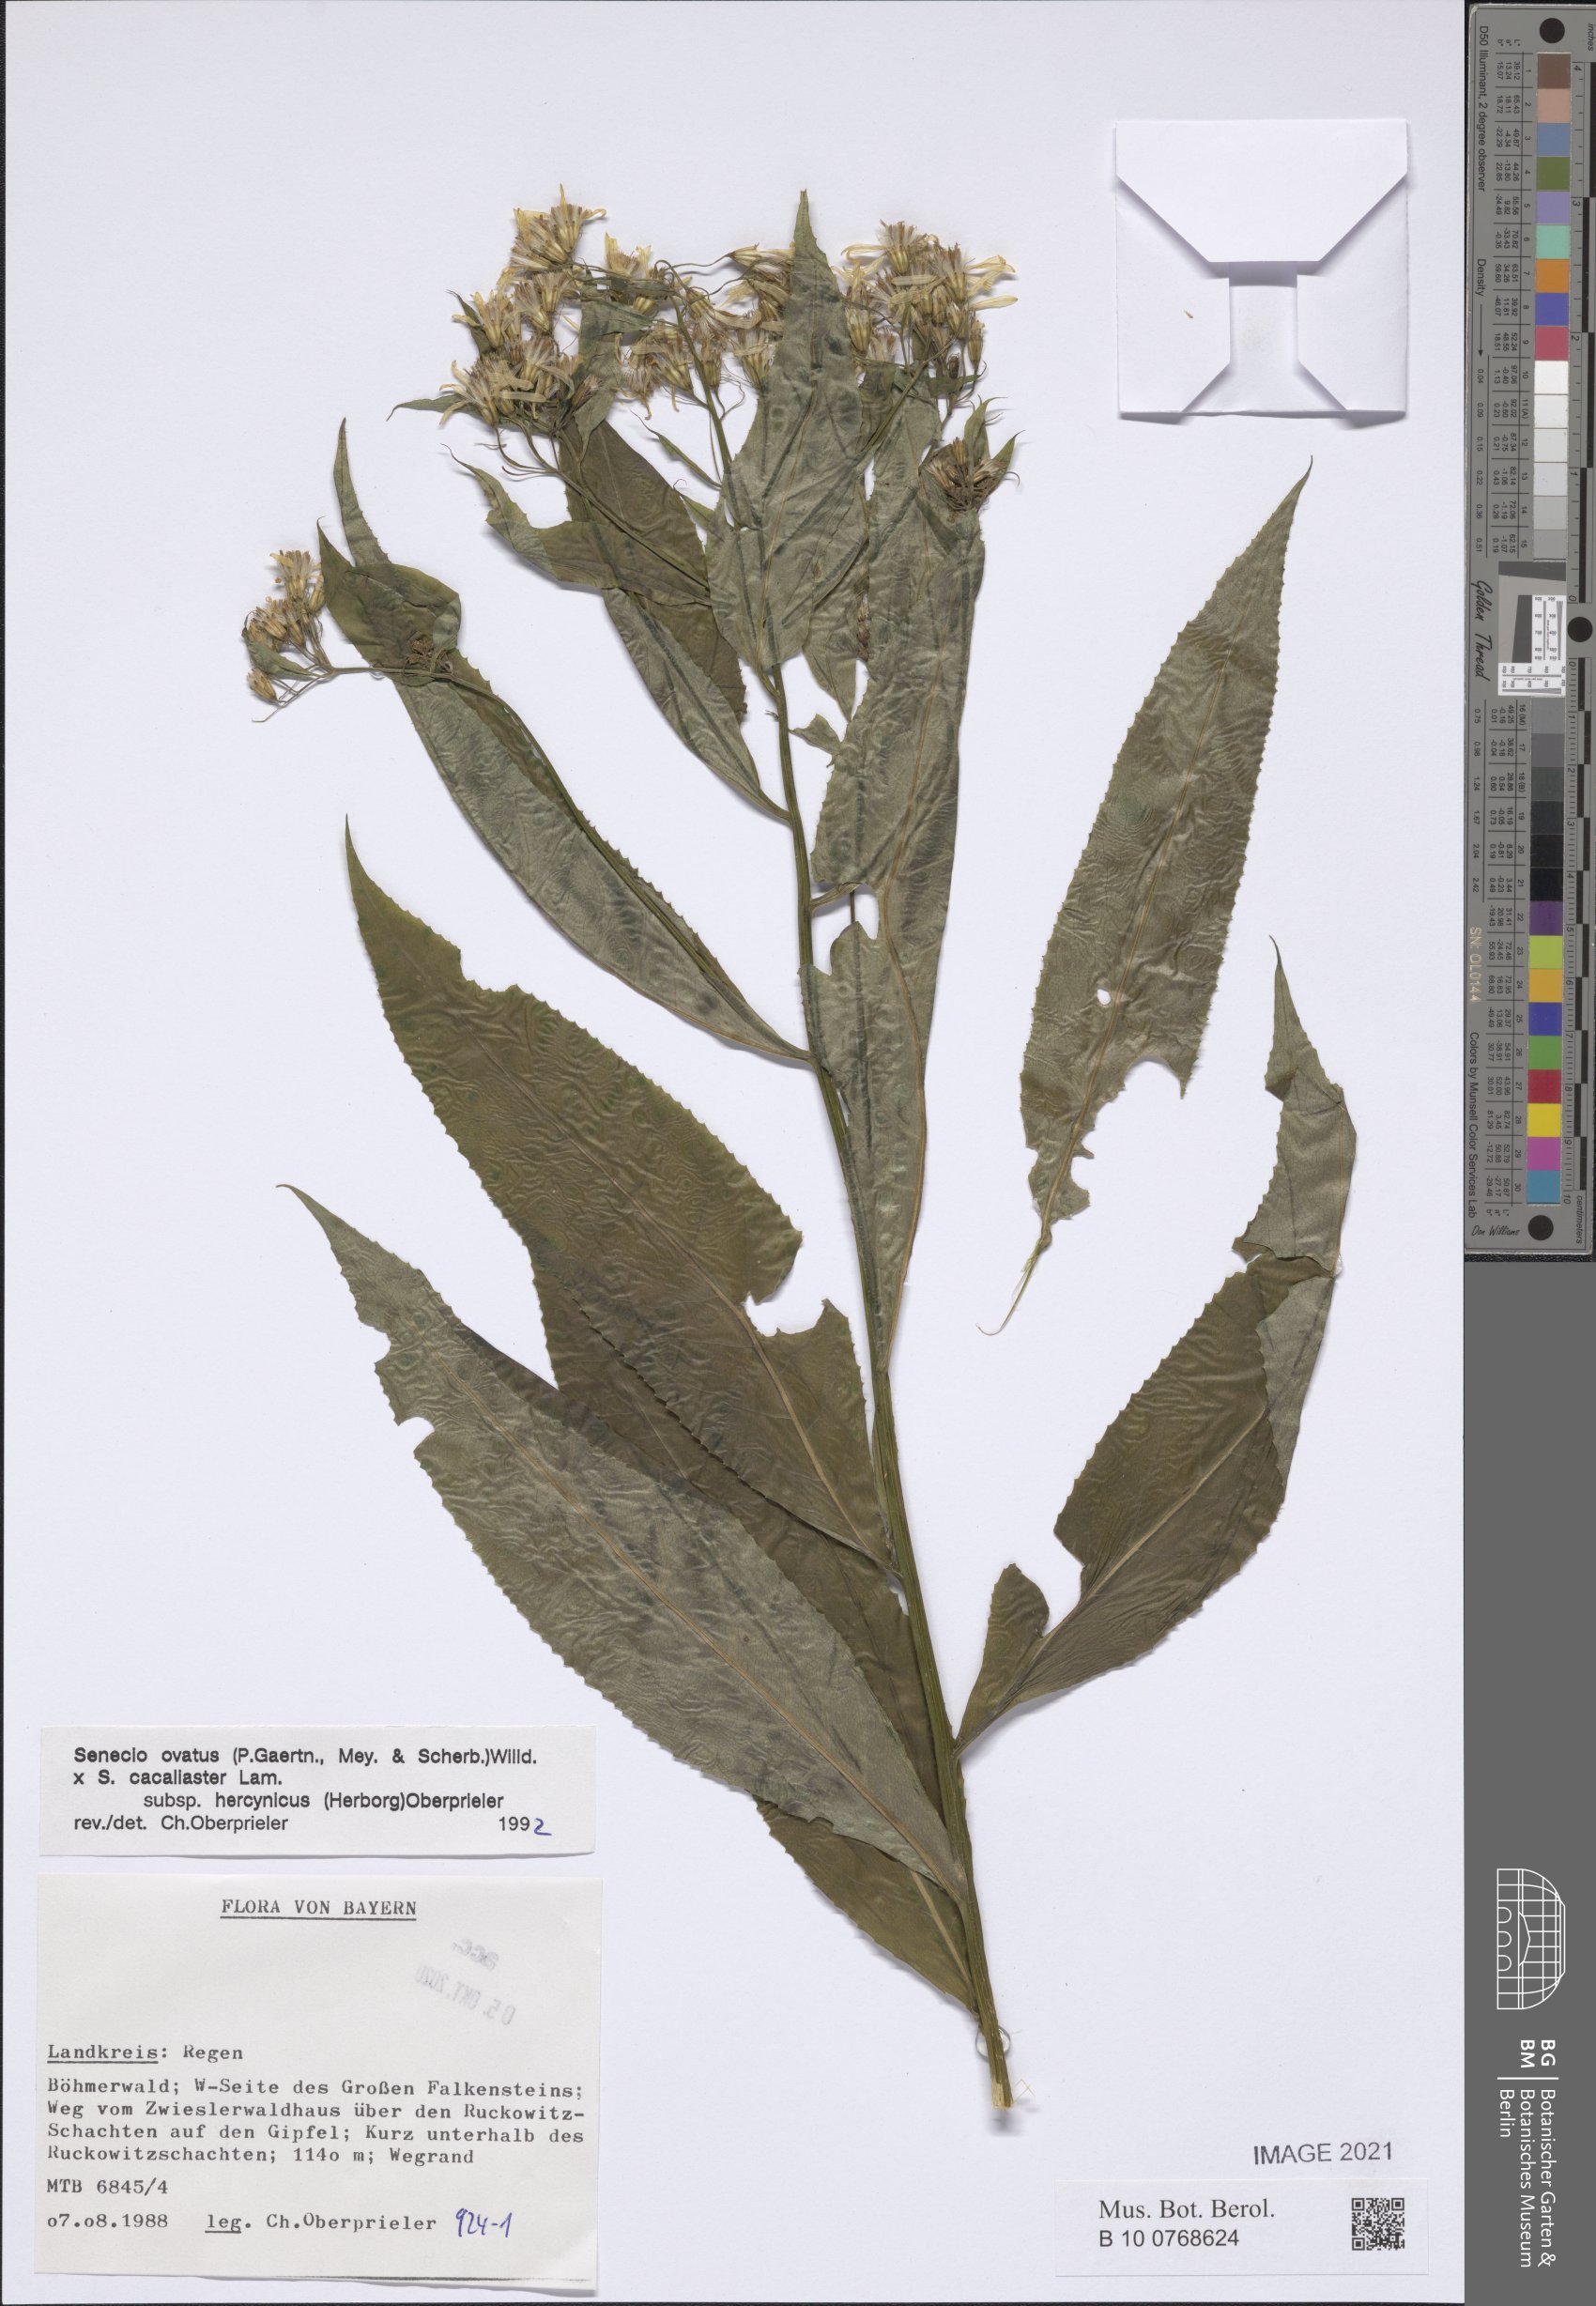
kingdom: Plantae
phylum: Tracheophyta
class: Magnoliopsida
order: Asterales
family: Asteraceae
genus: Senecio
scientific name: Senecio ovatus
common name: Wood ragwort
